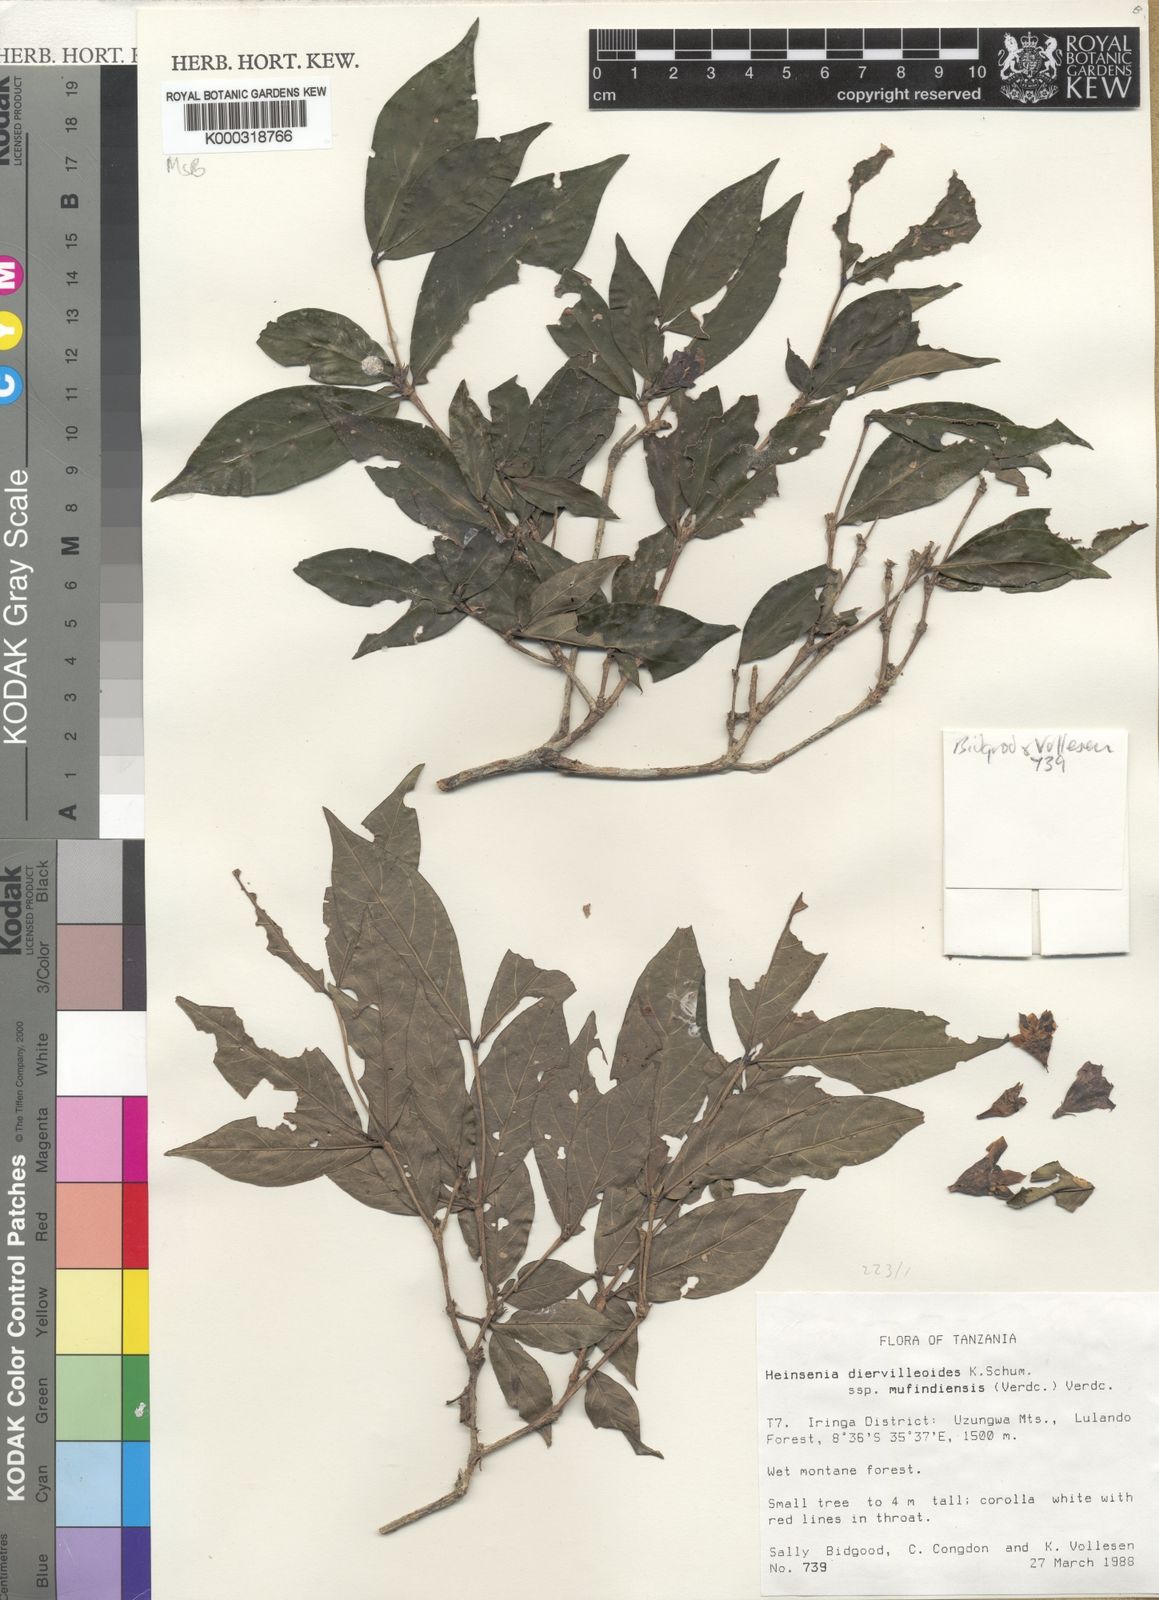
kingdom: Plantae
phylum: Tracheophyta
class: Magnoliopsida
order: Gentianales
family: Rubiaceae
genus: Heinsenia
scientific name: Heinsenia diervilleoides
